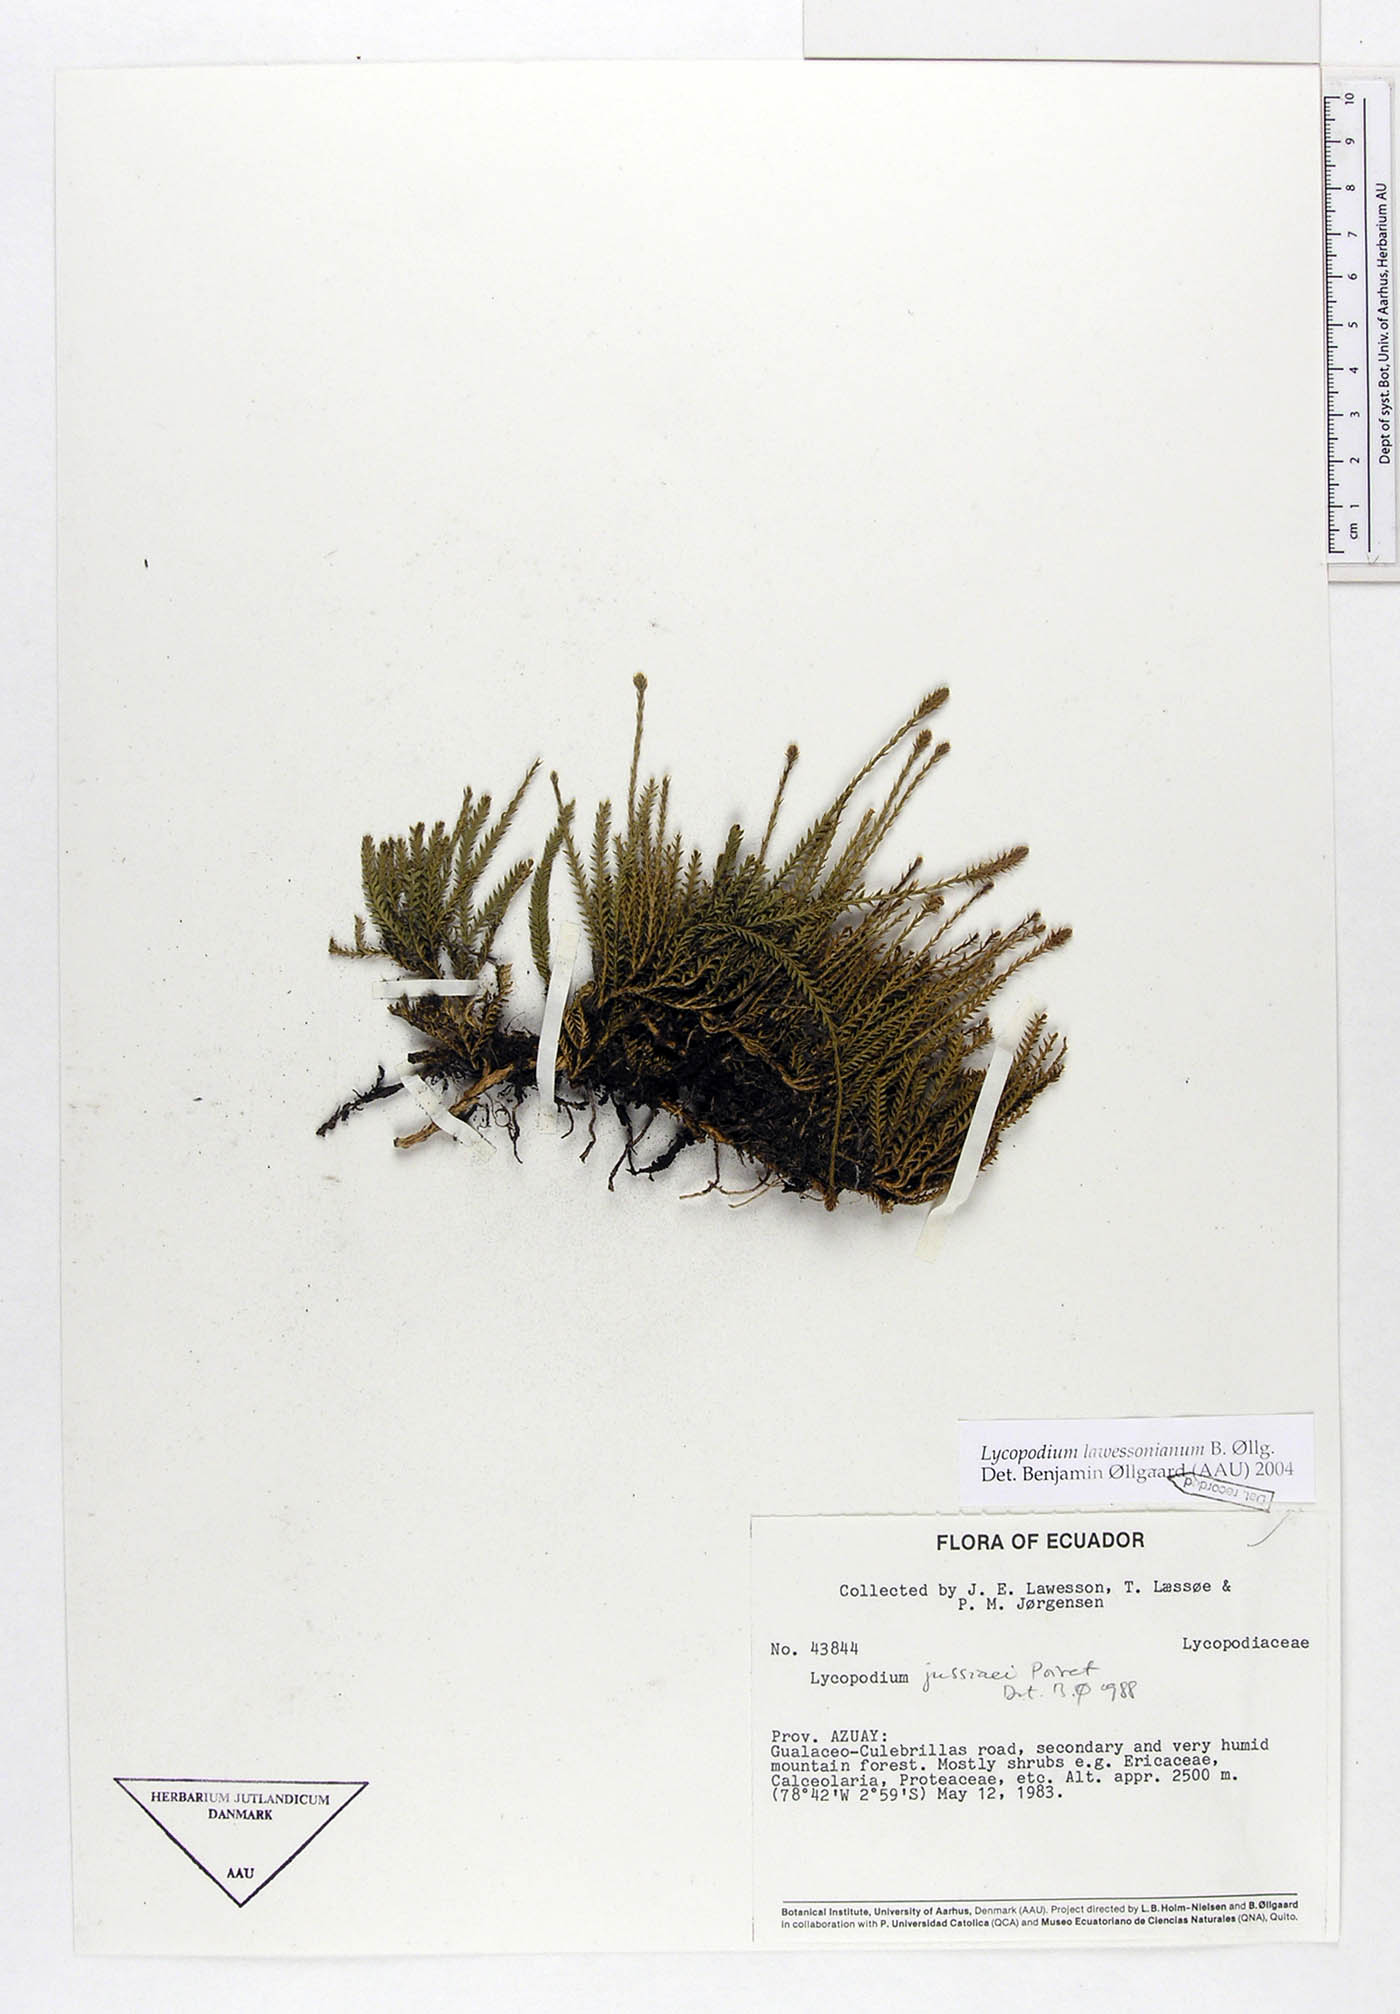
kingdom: Plantae
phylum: Tracheophyta
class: Lycopodiopsida
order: Lycopodiales
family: Lycopodiaceae
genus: Diphasium
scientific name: Diphasium lawessonianum
